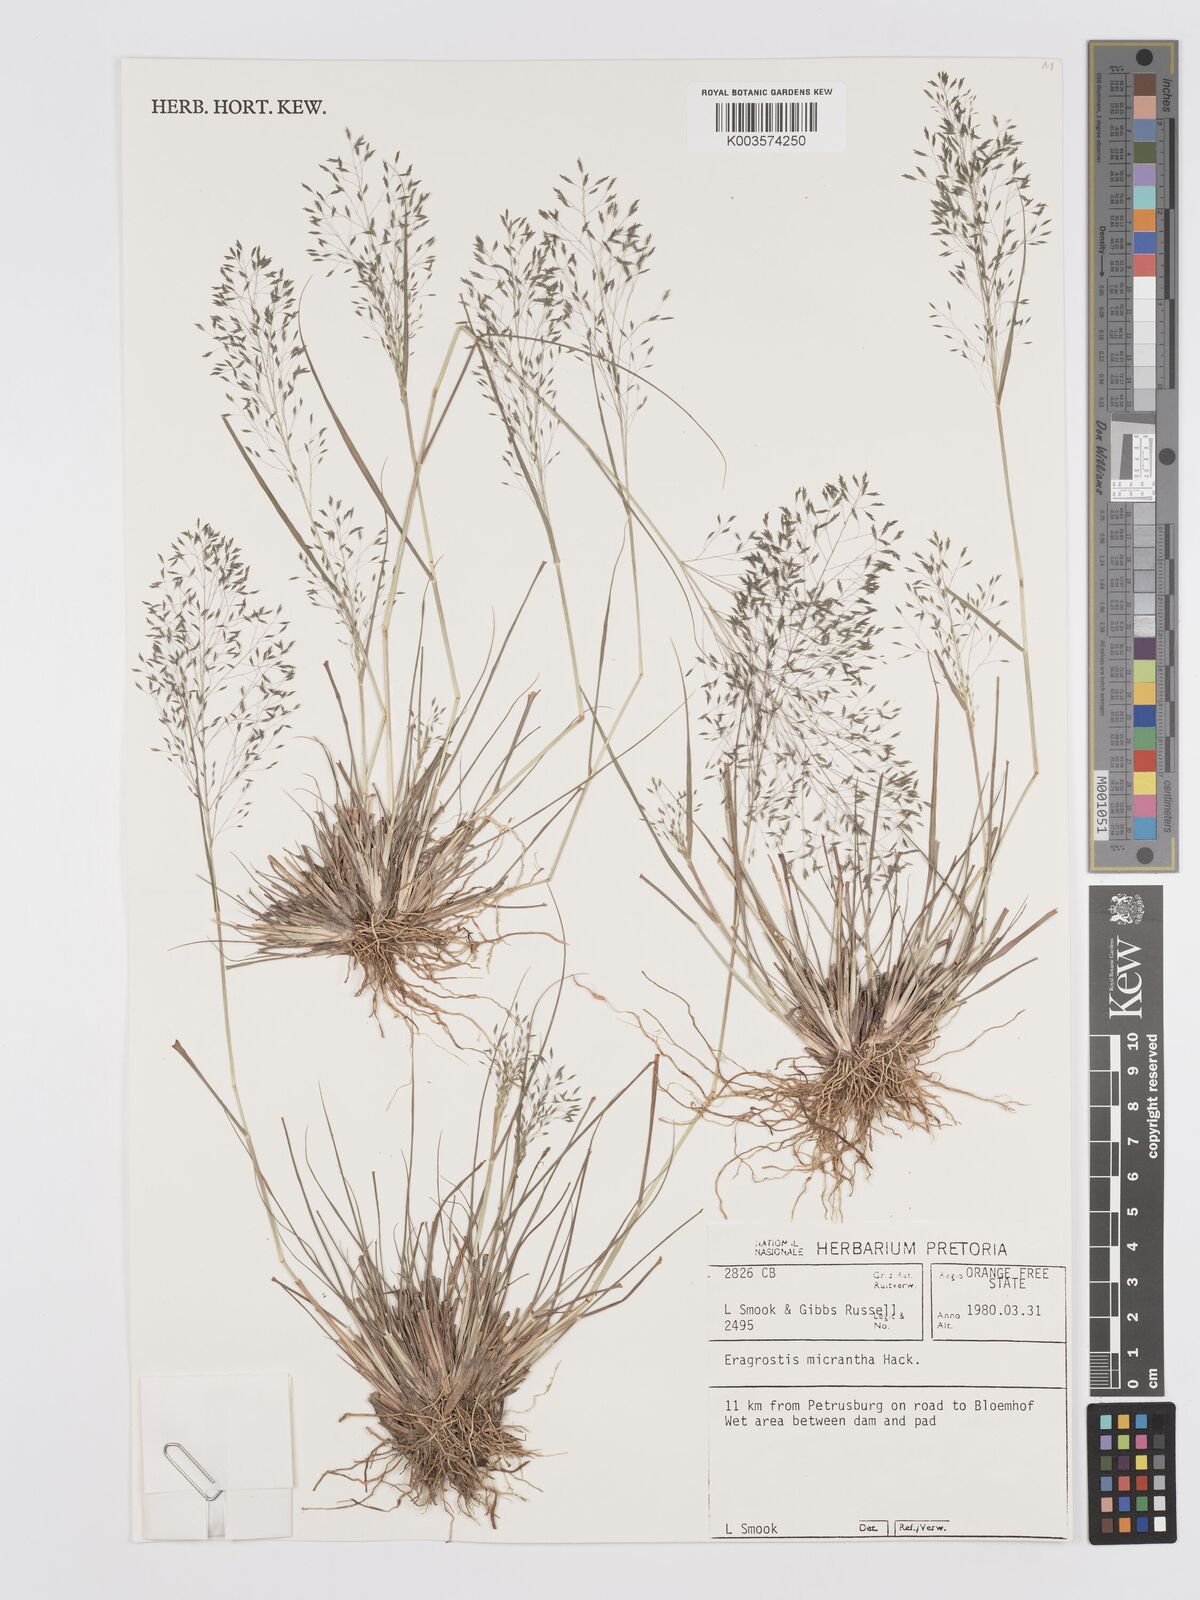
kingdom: Plantae
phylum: Tracheophyta
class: Liliopsida
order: Poales
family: Poaceae
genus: Eragrostis
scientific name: Eragrostis micrantha
